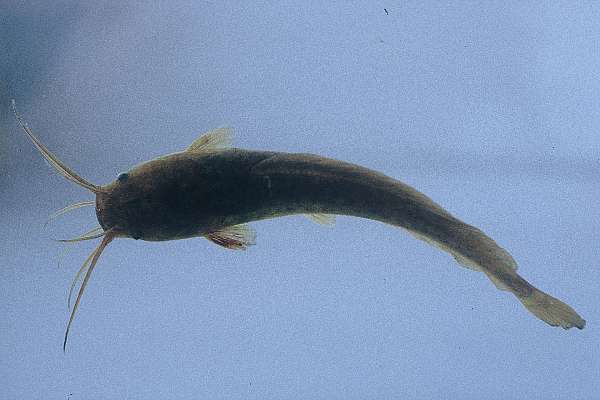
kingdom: Animalia
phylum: Chordata
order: Siluriformes
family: Clariidae
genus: Clarias
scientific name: Clarias gariepinus
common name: African catfish
